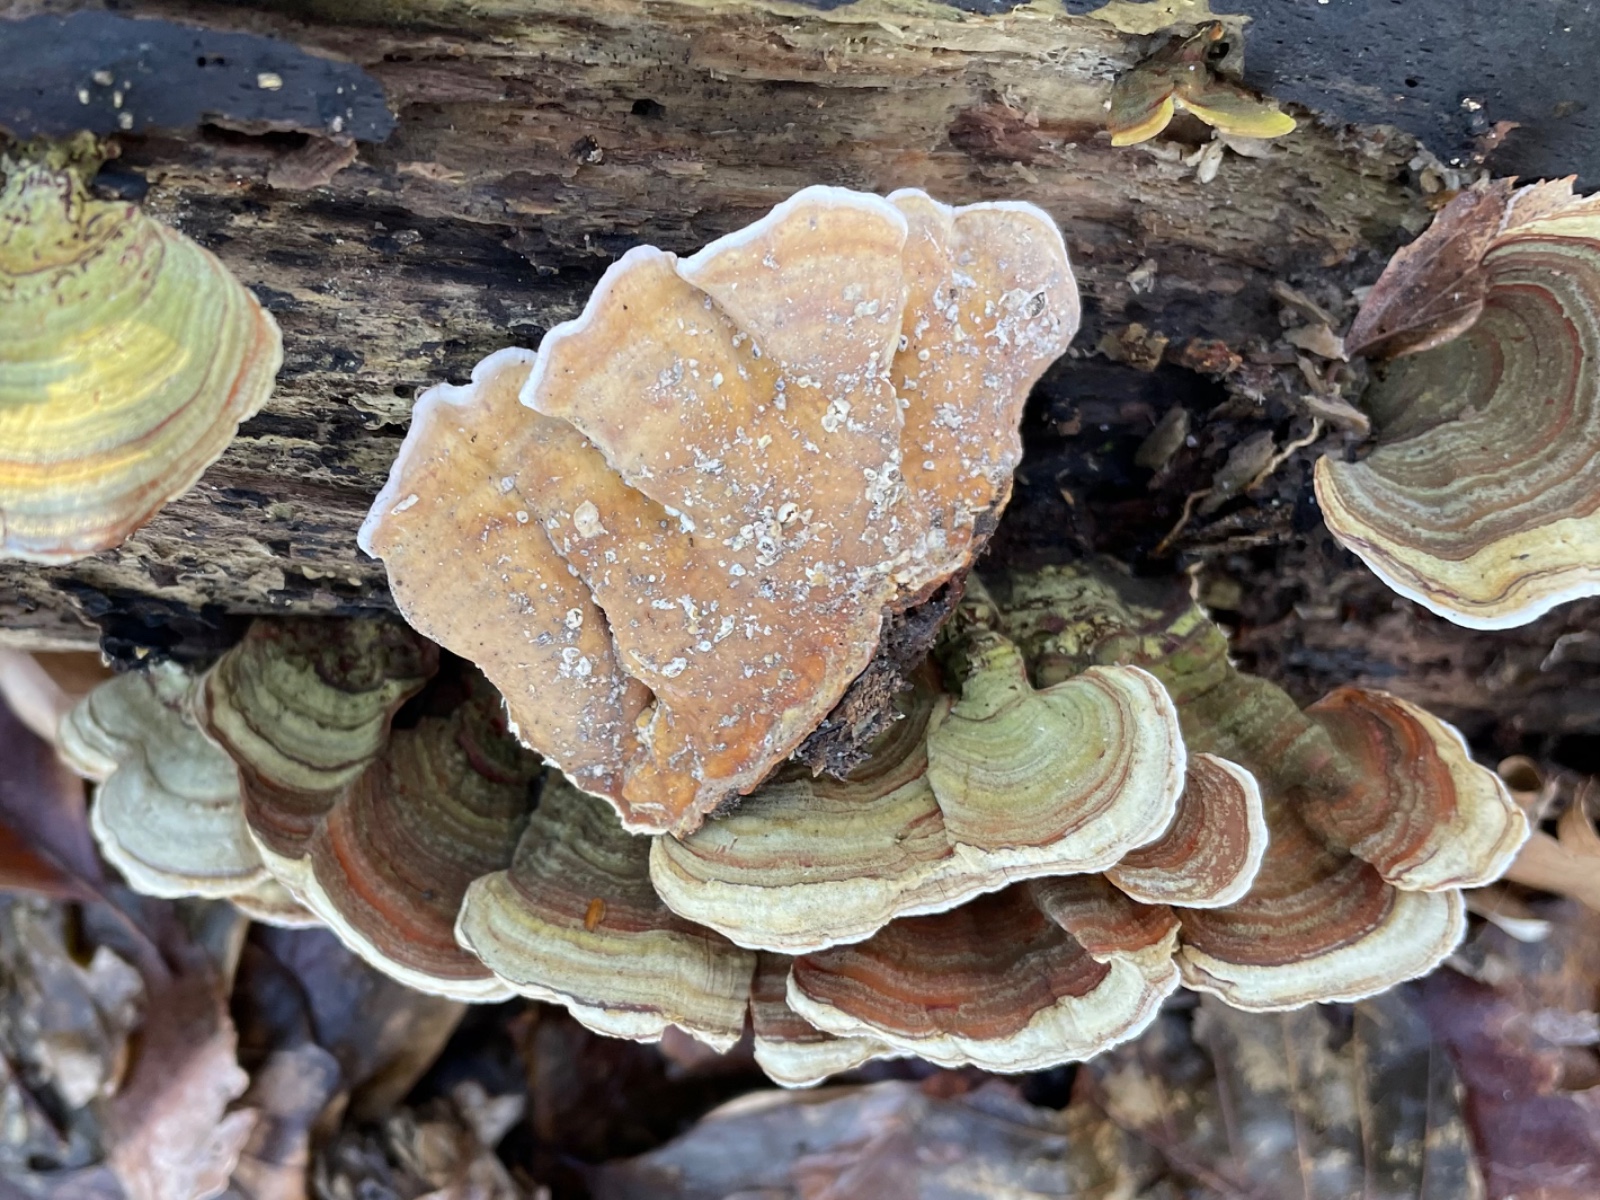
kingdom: Fungi
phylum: Basidiomycota
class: Agaricomycetes
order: Russulales
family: Stereaceae
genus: Stereum
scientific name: Stereum subtomentosum
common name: smuk lædersvamp
